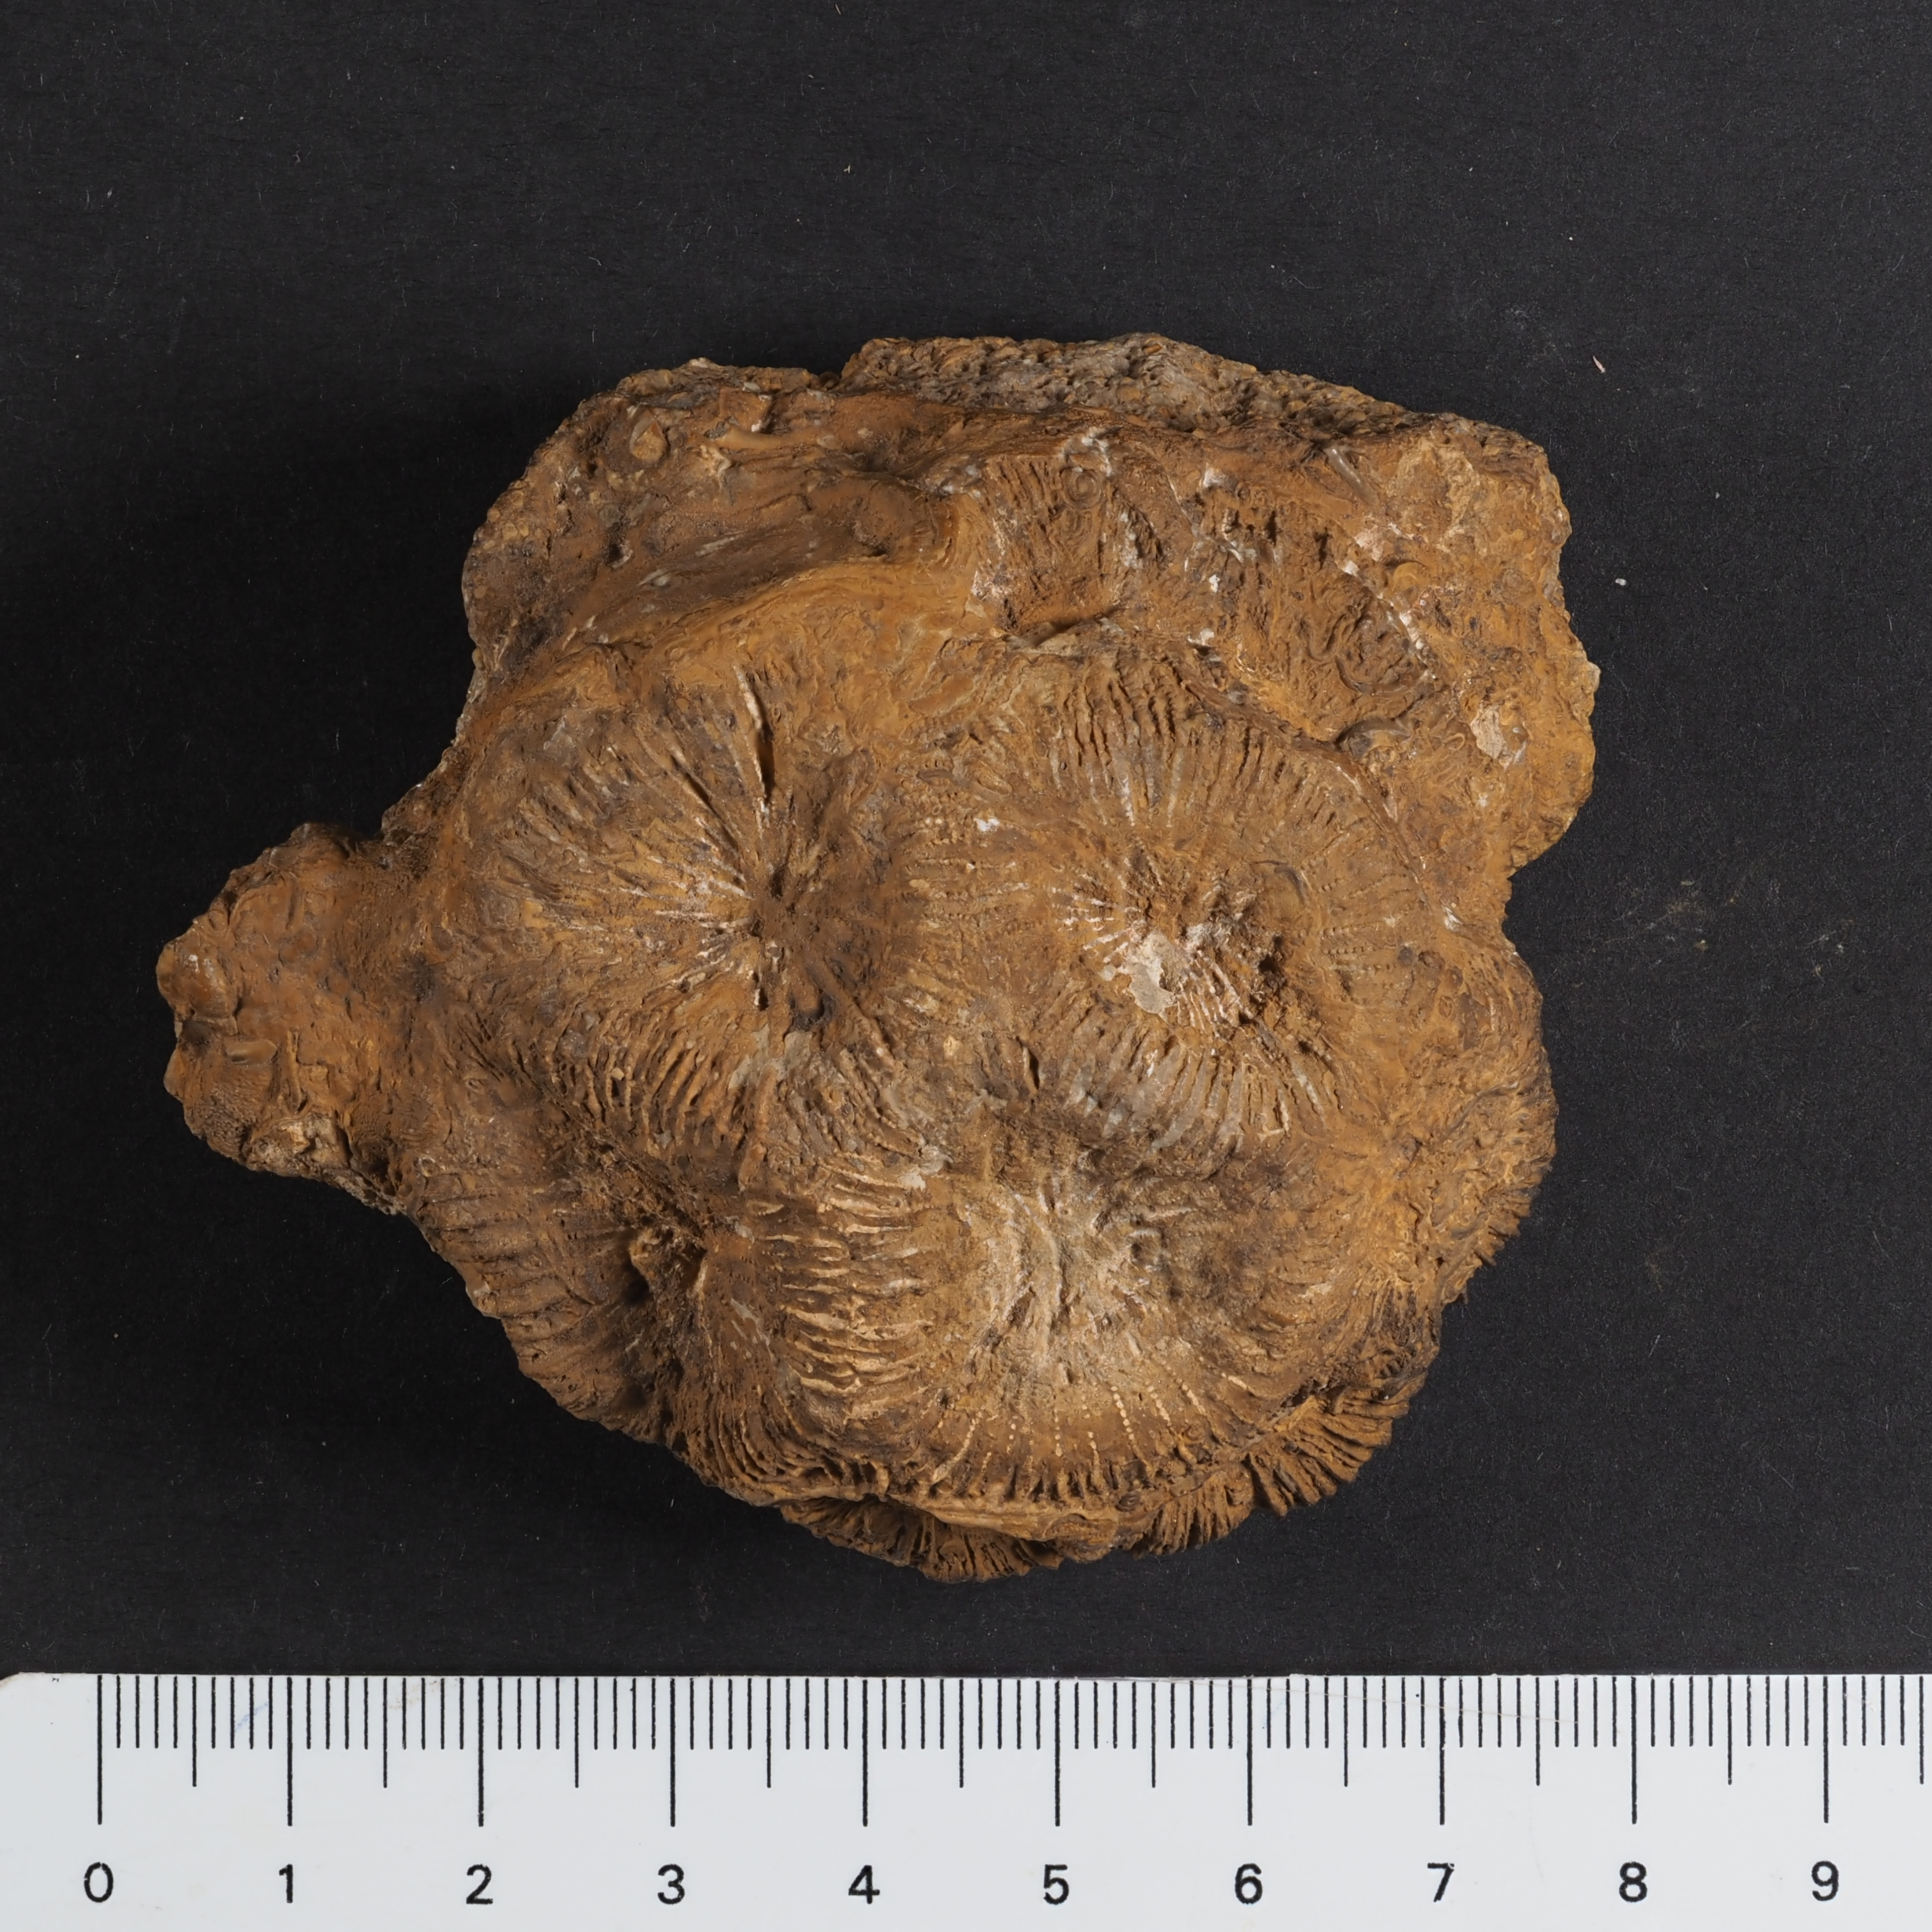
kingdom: Animalia
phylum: Cnidaria
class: Anthozoa
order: Scleractinia
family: Thecosmiliidae
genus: Montlivaltia
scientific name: Montlivaltia
